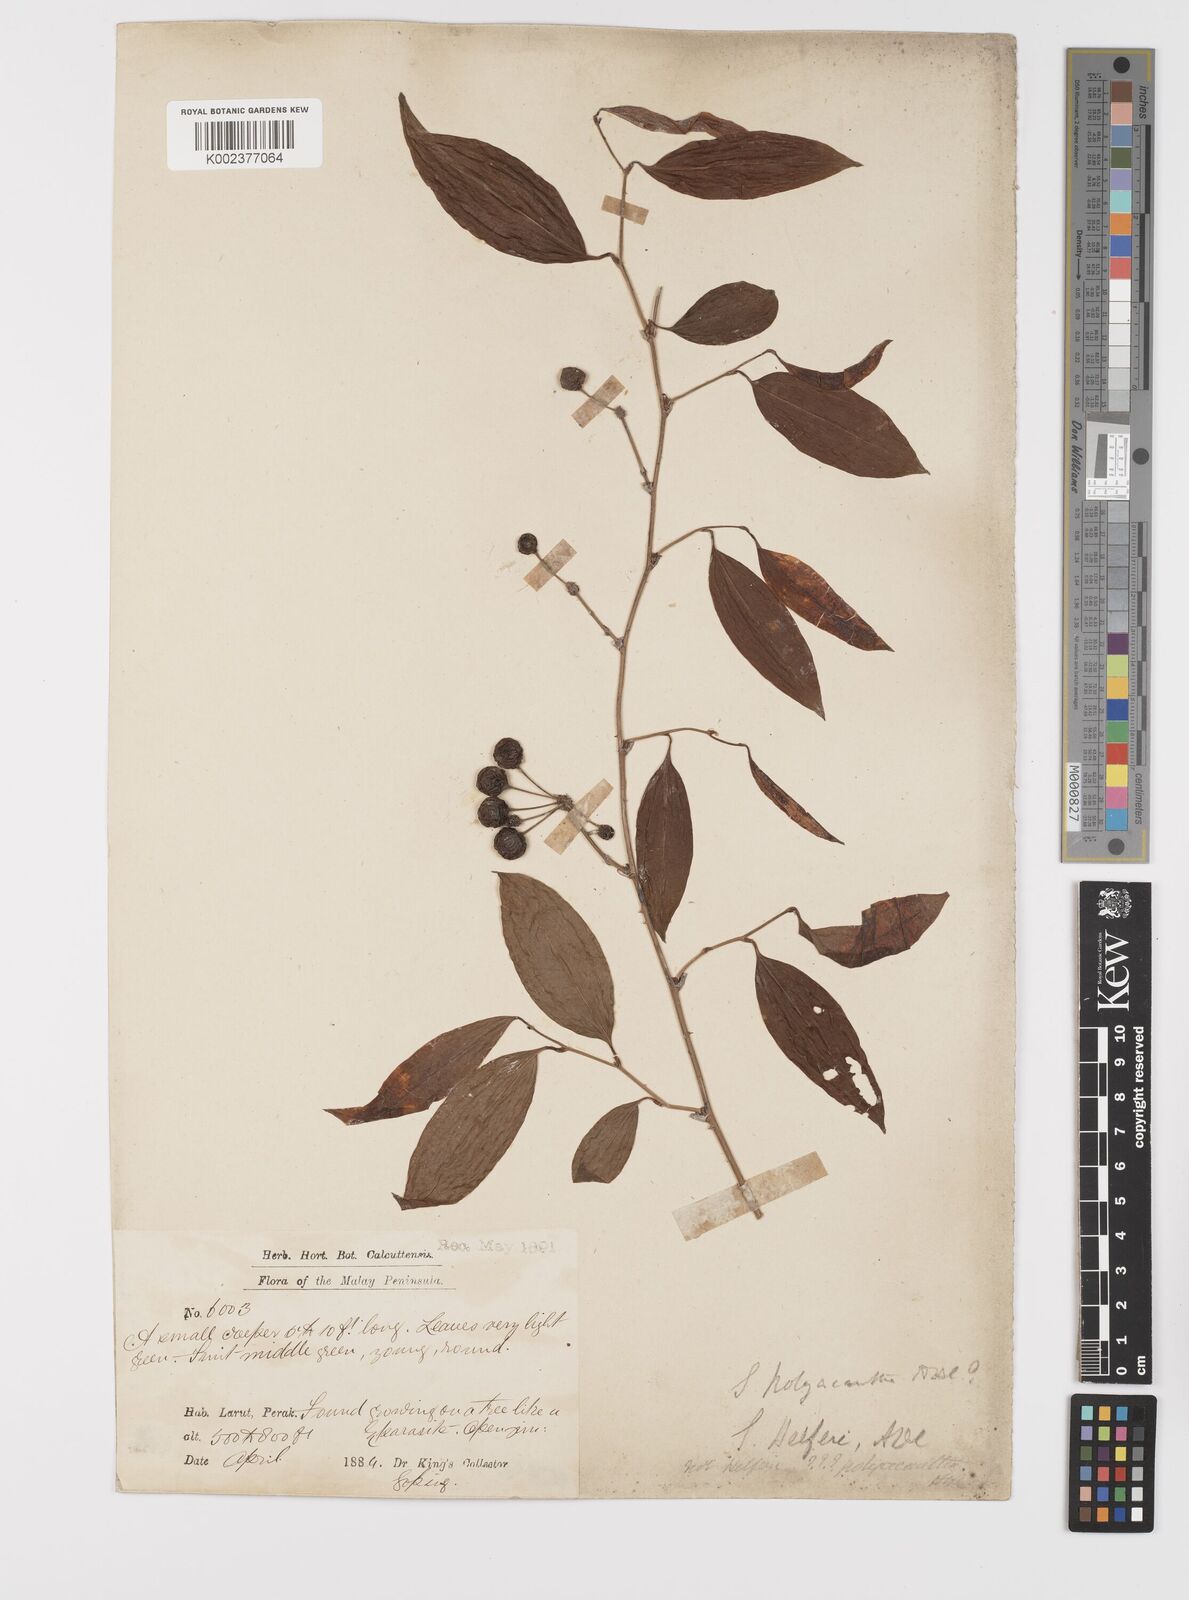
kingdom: Plantae
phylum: Tracheophyta
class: Liliopsida
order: Liliales
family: Smilacaceae
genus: Smilax
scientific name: Smilax polyacantha
